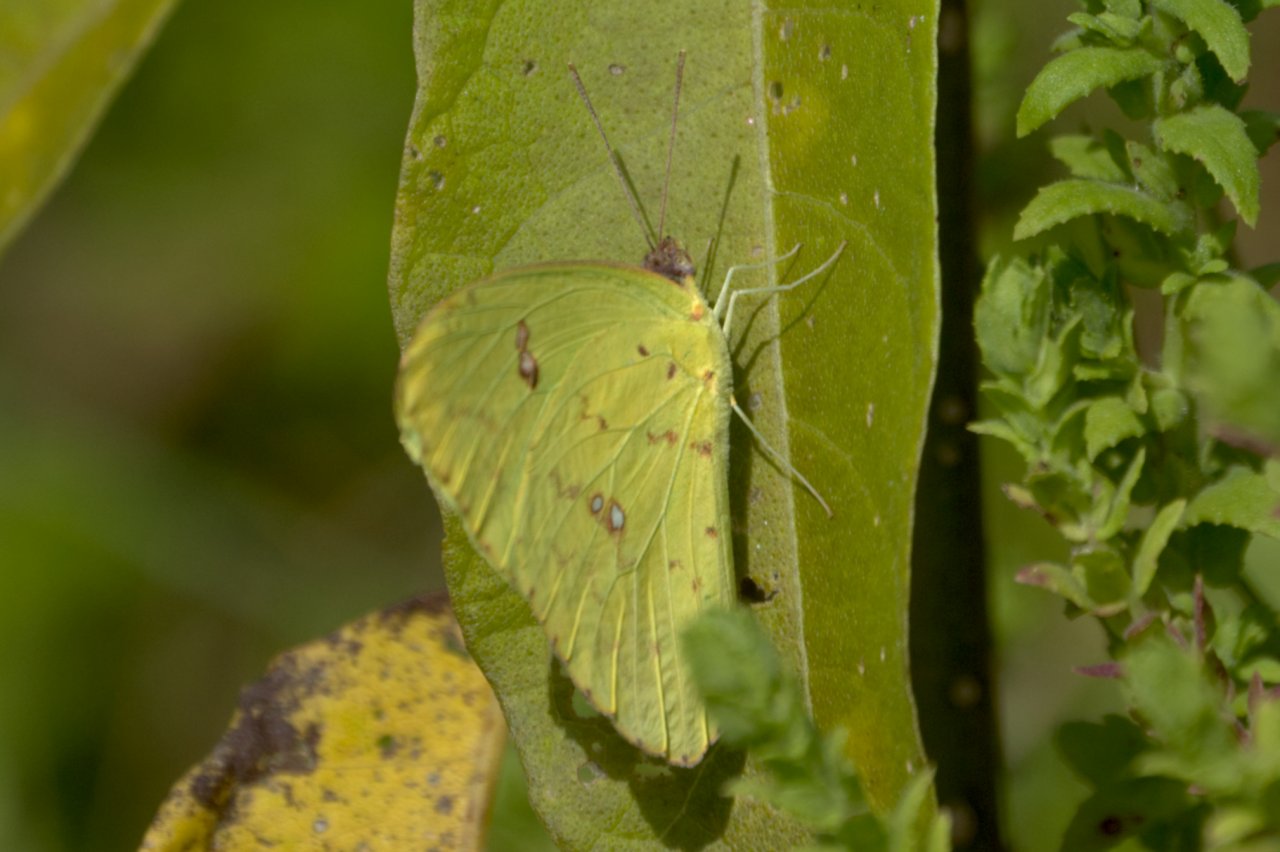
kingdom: Animalia
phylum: Arthropoda
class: Insecta
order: Lepidoptera
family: Pieridae
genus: Phoebis
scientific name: Phoebis sennae
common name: Cloudless Sulphur
